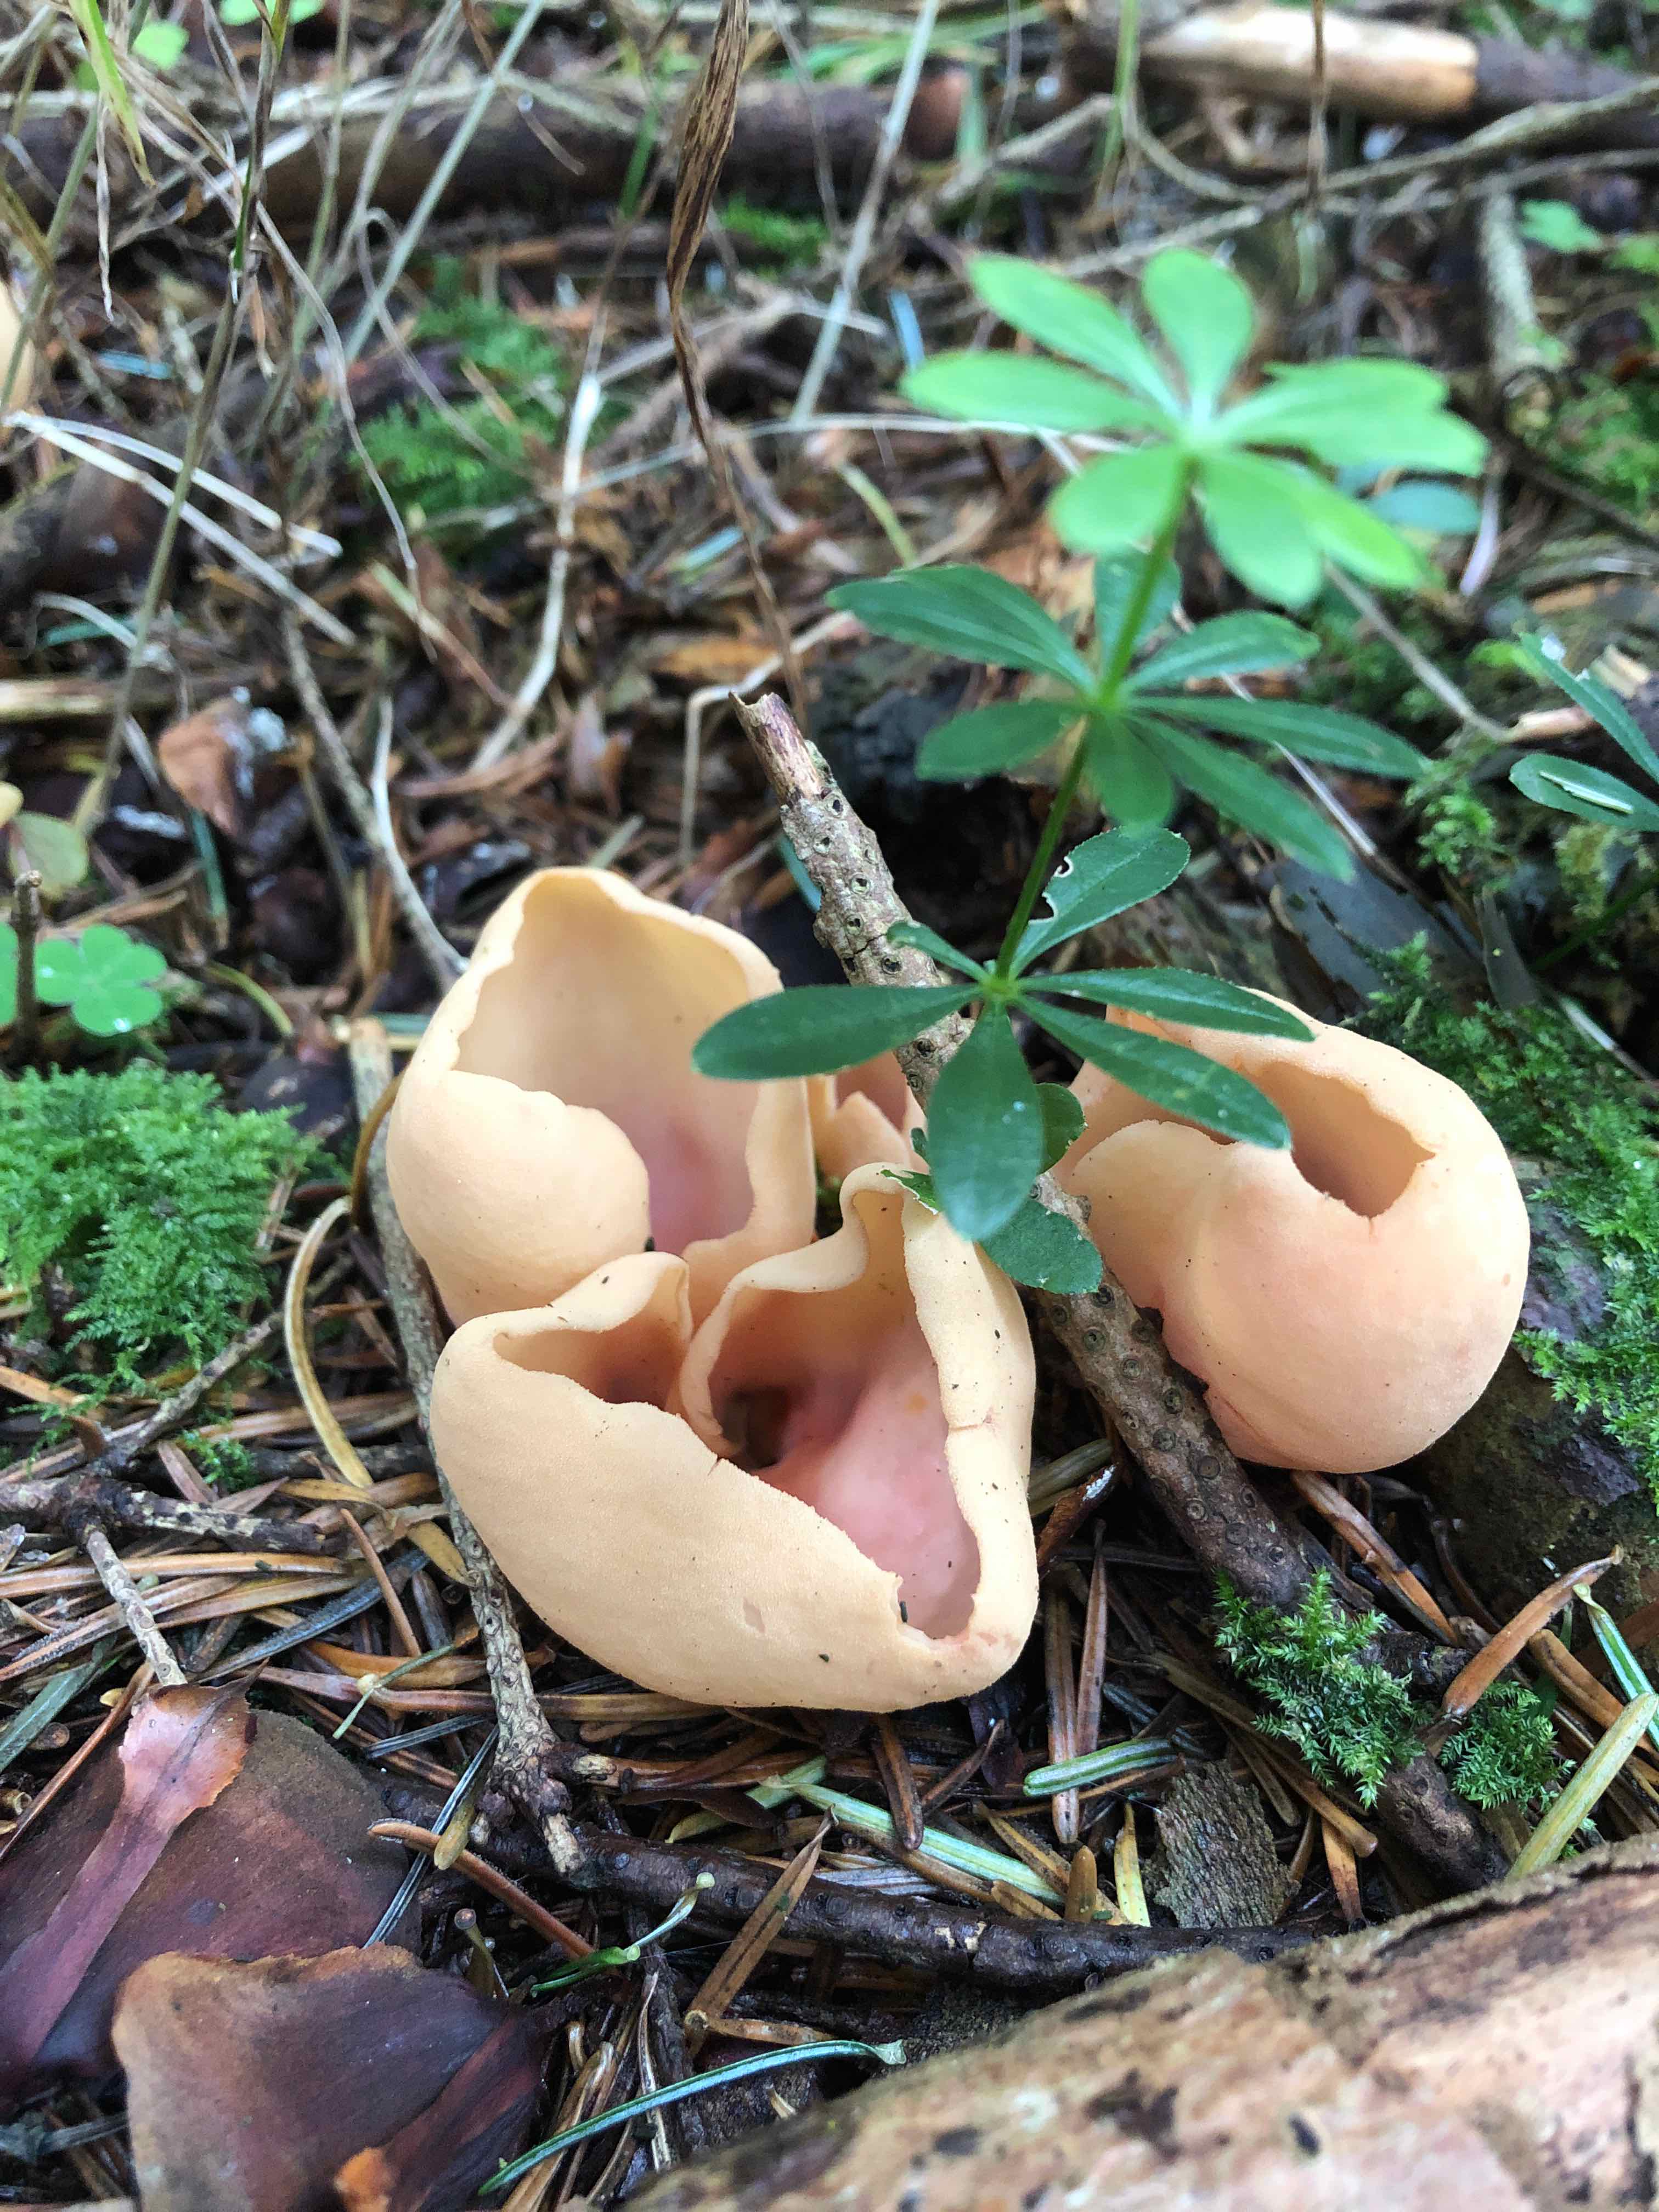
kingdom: Fungi
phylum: Ascomycota
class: Pezizomycetes
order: Pezizales
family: Otideaceae
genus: Otidea
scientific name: Otidea onotica
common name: æsel-ørebæger
